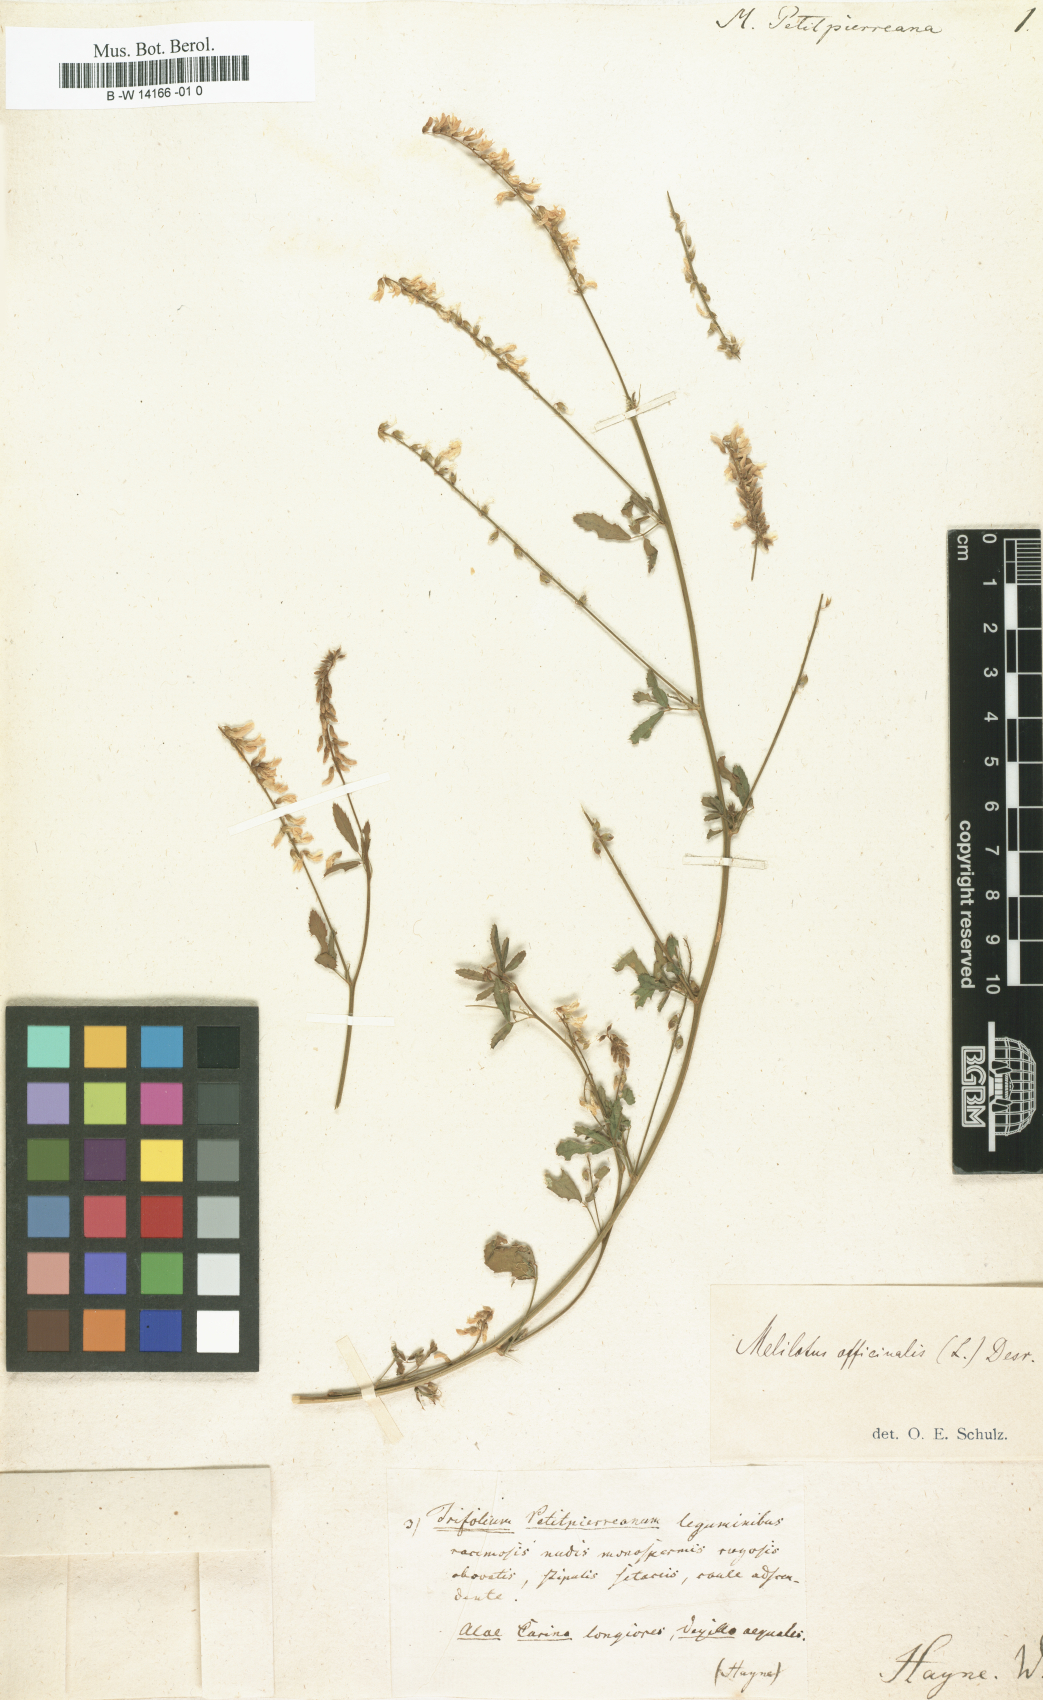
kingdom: Plantae
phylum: Tracheophyta
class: Magnoliopsida
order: Fabales
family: Fabaceae
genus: Melilotus
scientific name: Melilotus officinalis
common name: Sweetclover
